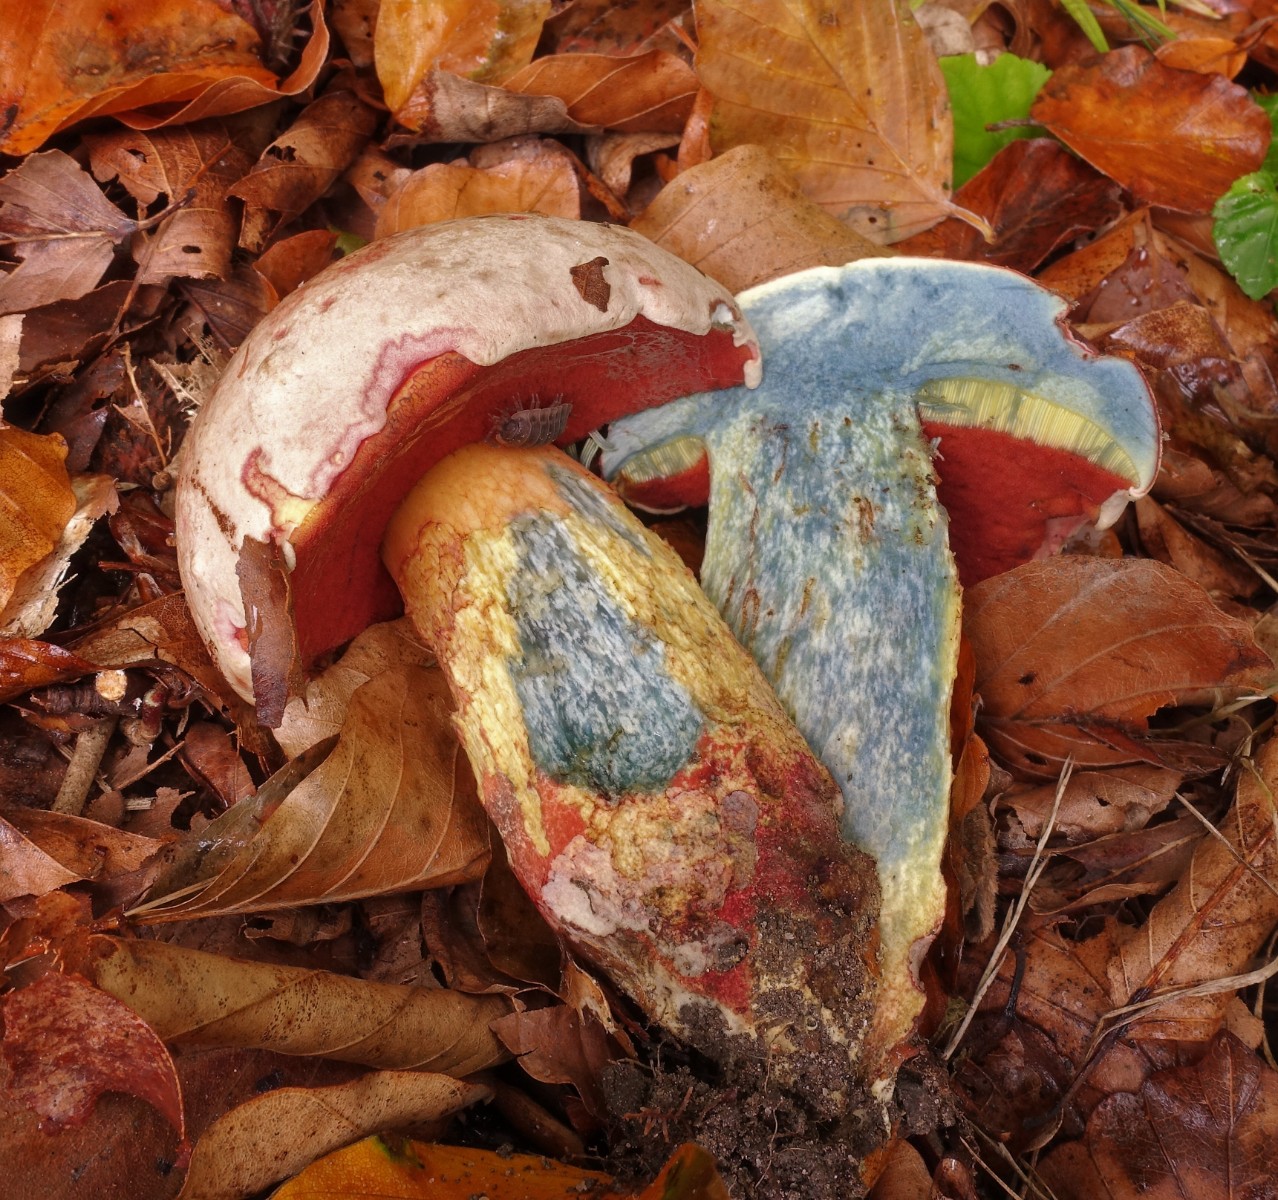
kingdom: Fungi
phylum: Basidiomycota
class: Agaricomycetes
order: Boletales
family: Boletaceae
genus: Rubroboletus
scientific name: Rubroboletus legaliae
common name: djævle-rørhat
